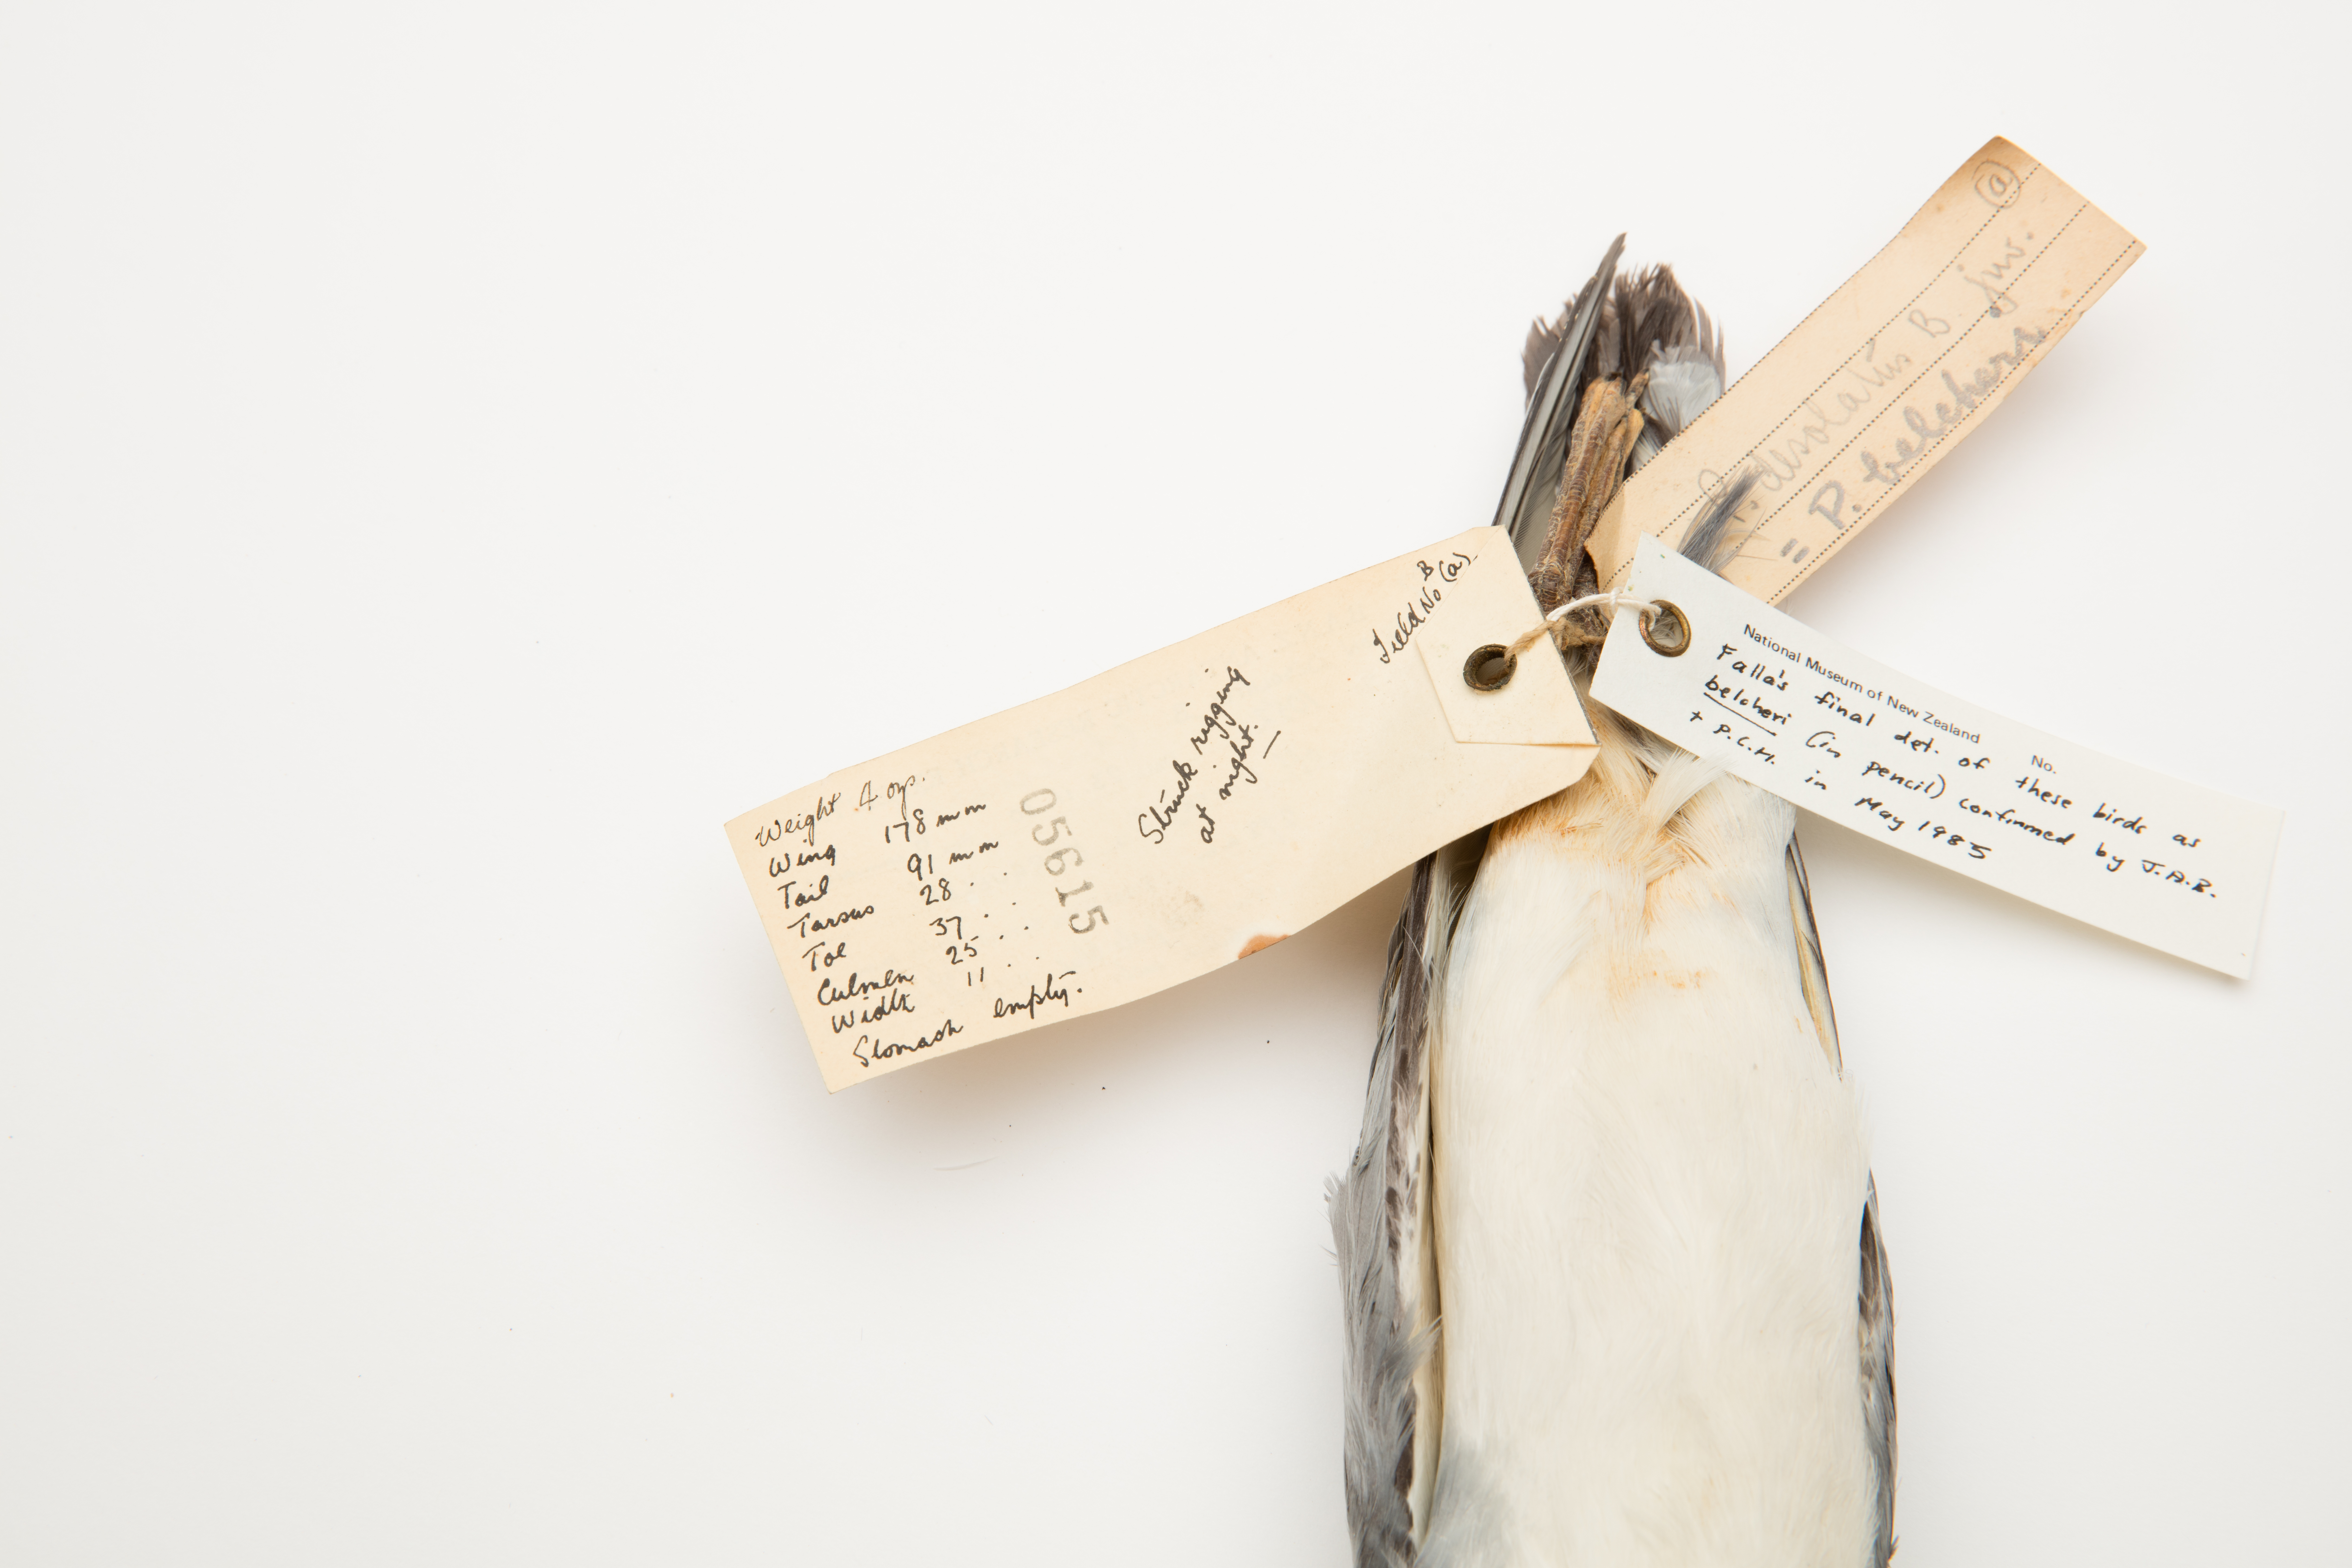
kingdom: Animalia
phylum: Chordata
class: Aves
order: Procellariiformes
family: Procellariidae
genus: Pachyptila
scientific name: Pachyptila belcheri
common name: Slender-billed prion
